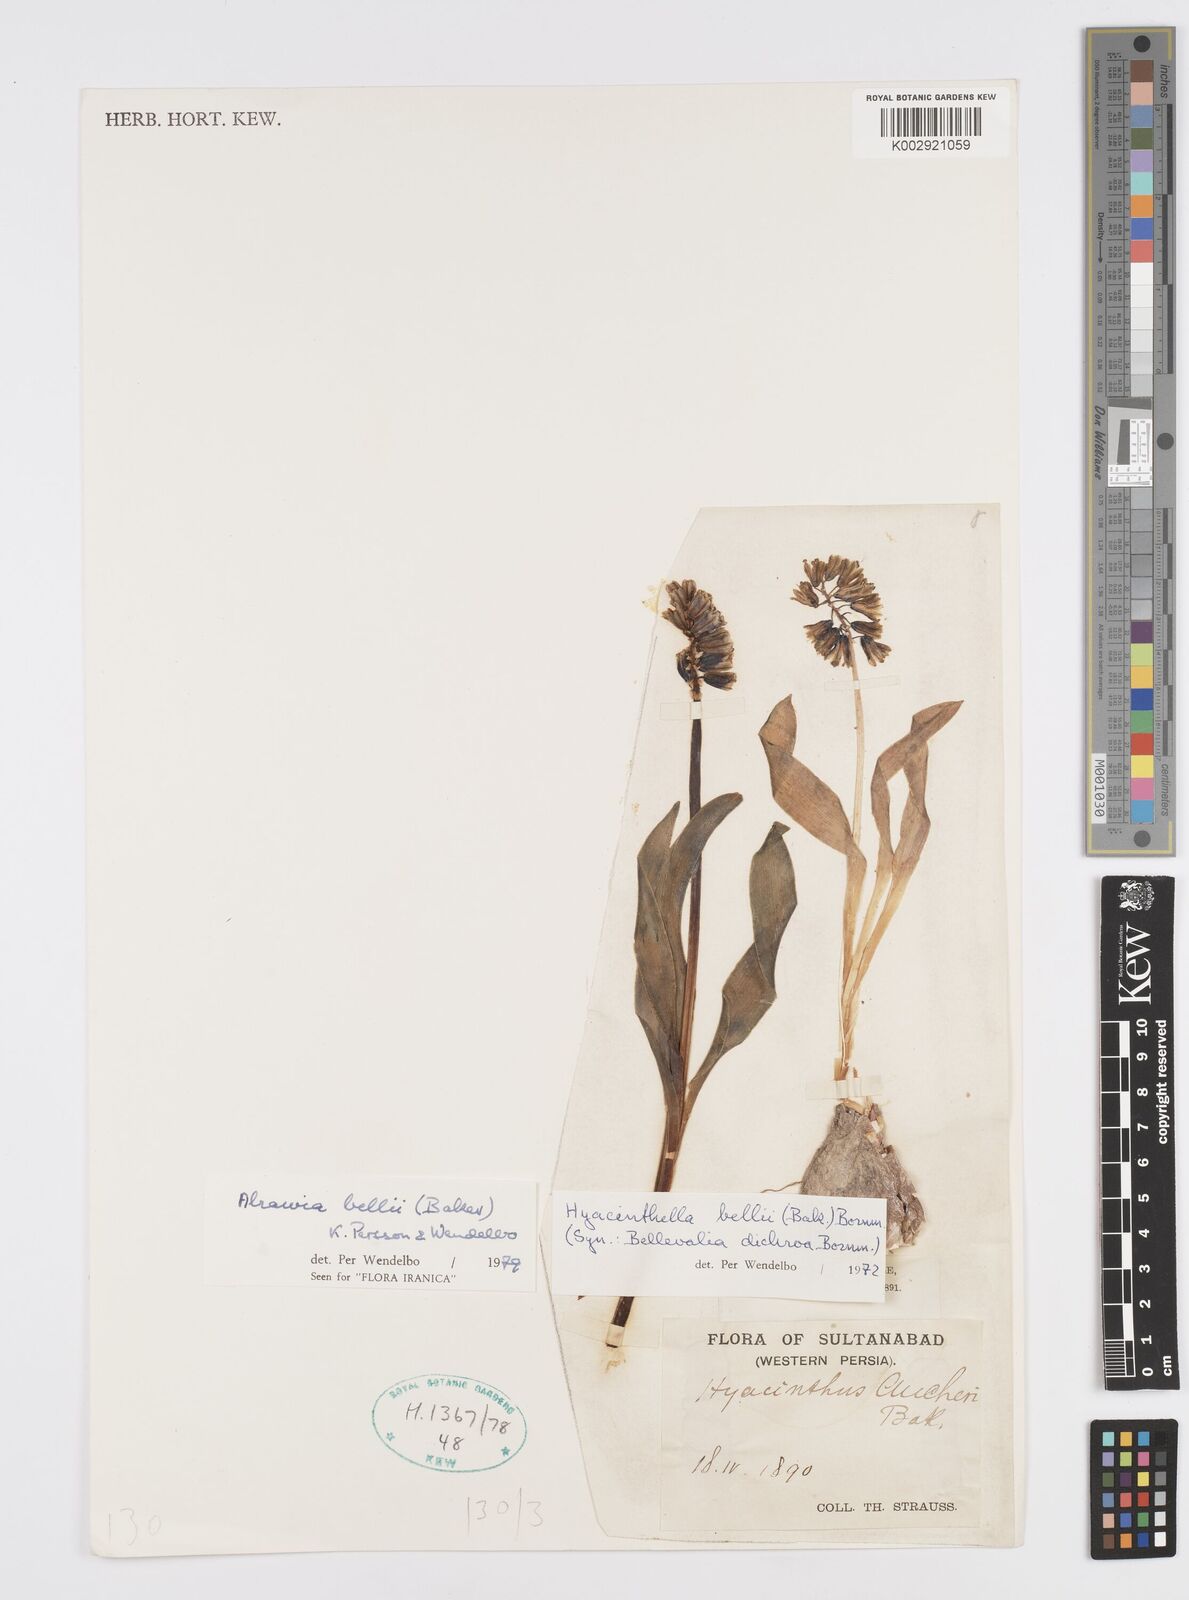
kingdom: Plantae
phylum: Tracheophyta
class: Liliopsida
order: Asparagales
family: Asparagaceae
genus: Alrawia
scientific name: Alrawia bellii
